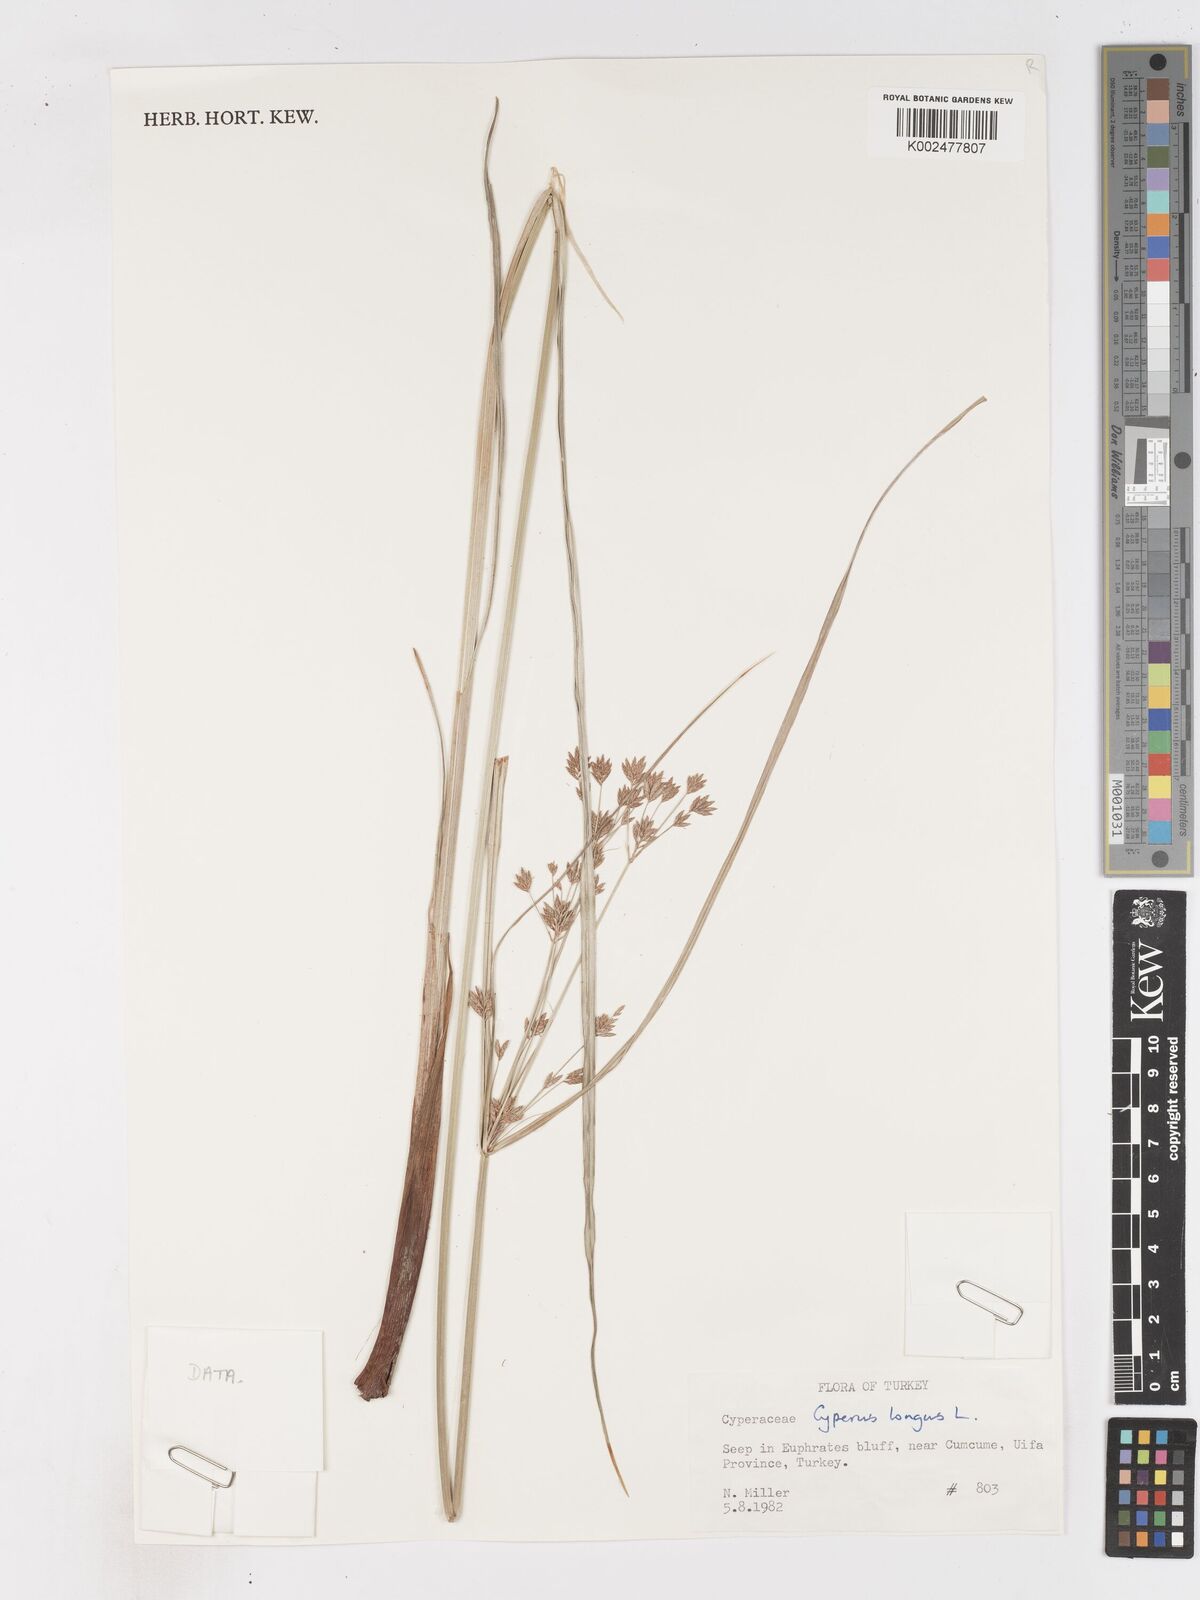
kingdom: Plantae
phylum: Tracheophyta
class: Liliopsida
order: Poales
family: Cyperaceae
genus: Cyperus
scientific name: Cyperus longus
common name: Galingale
